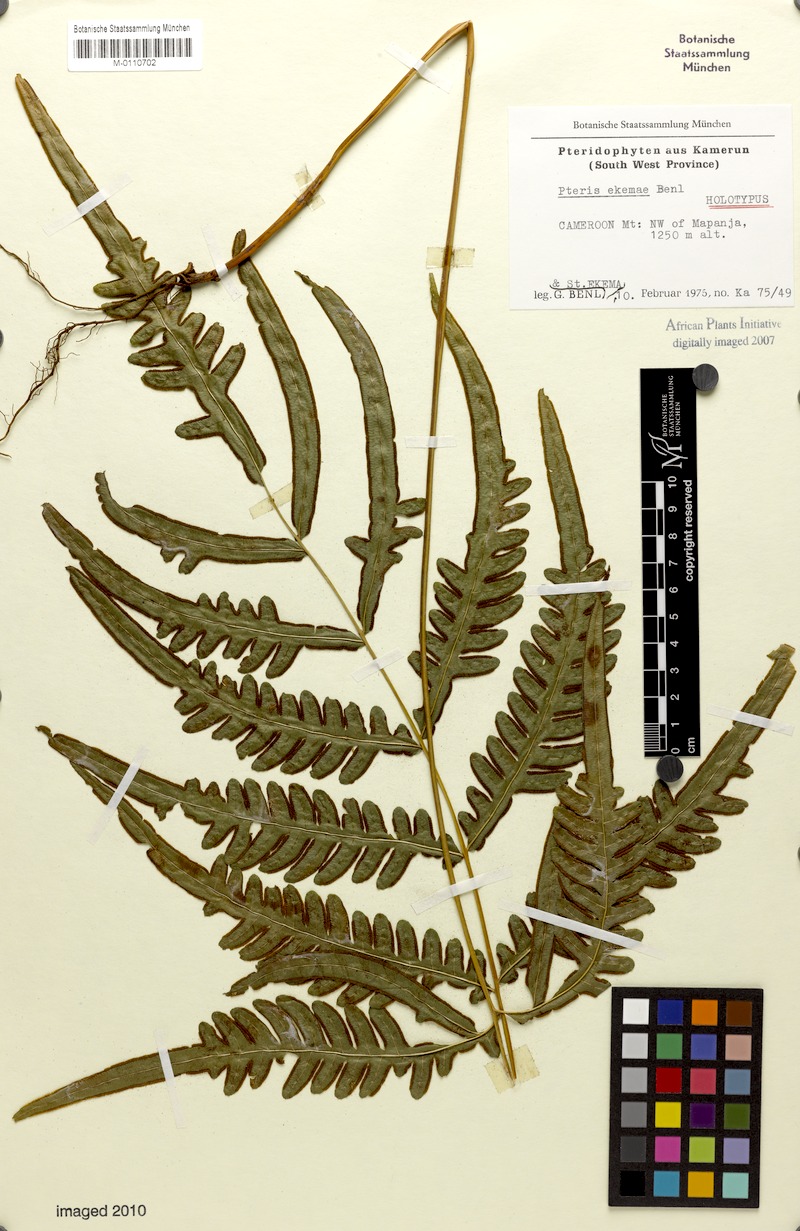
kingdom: Plantae
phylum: Tracheophyta
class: Polypodiopsida
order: Polypodiales
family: Pteridaceae
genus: Pteris
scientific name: Pteris ekemae
